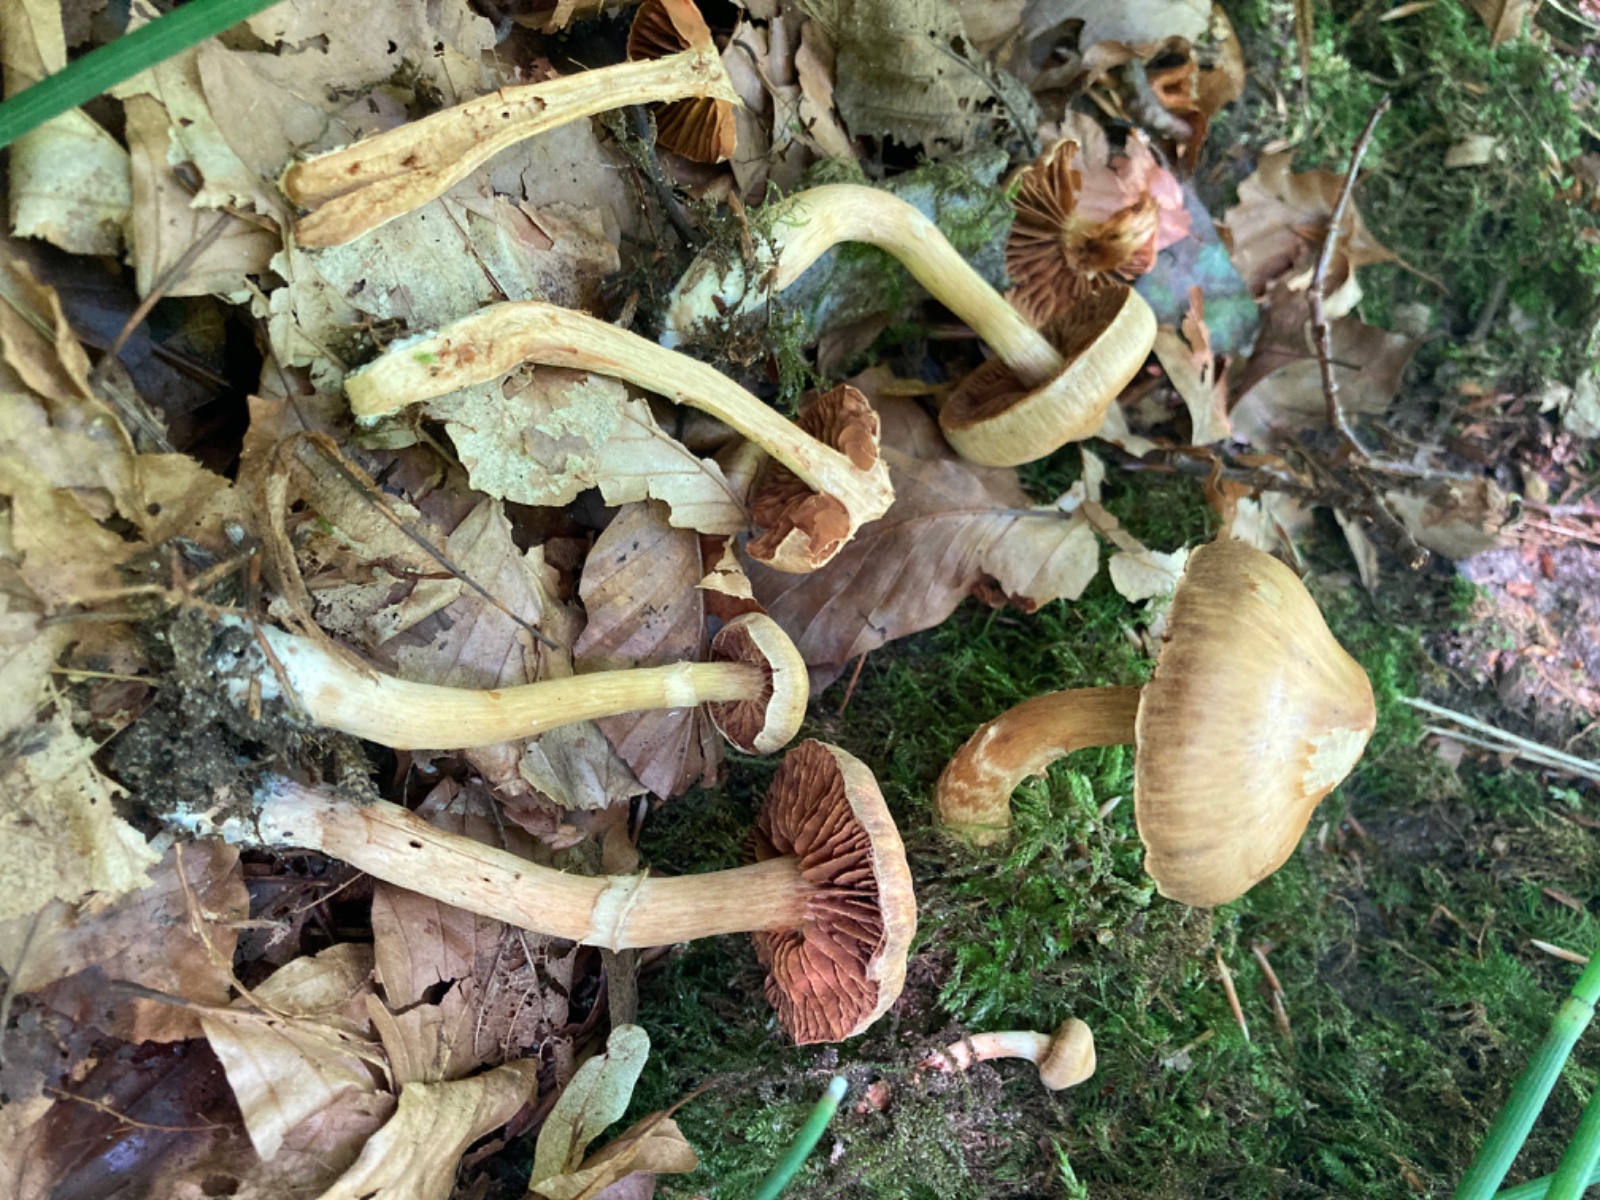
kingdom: Fungi
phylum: Basidiomycota
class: Agaricomycetes
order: Agaricales
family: Cortinariaceae
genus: Cortinarius
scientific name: Cortinarius hinnuleus
